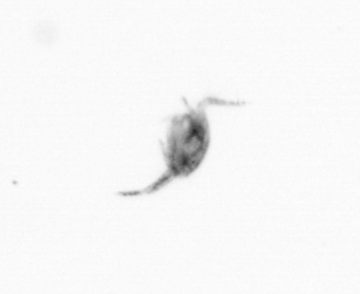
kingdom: Animalia
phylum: Arthropoda
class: Copepoda
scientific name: Copepoda
